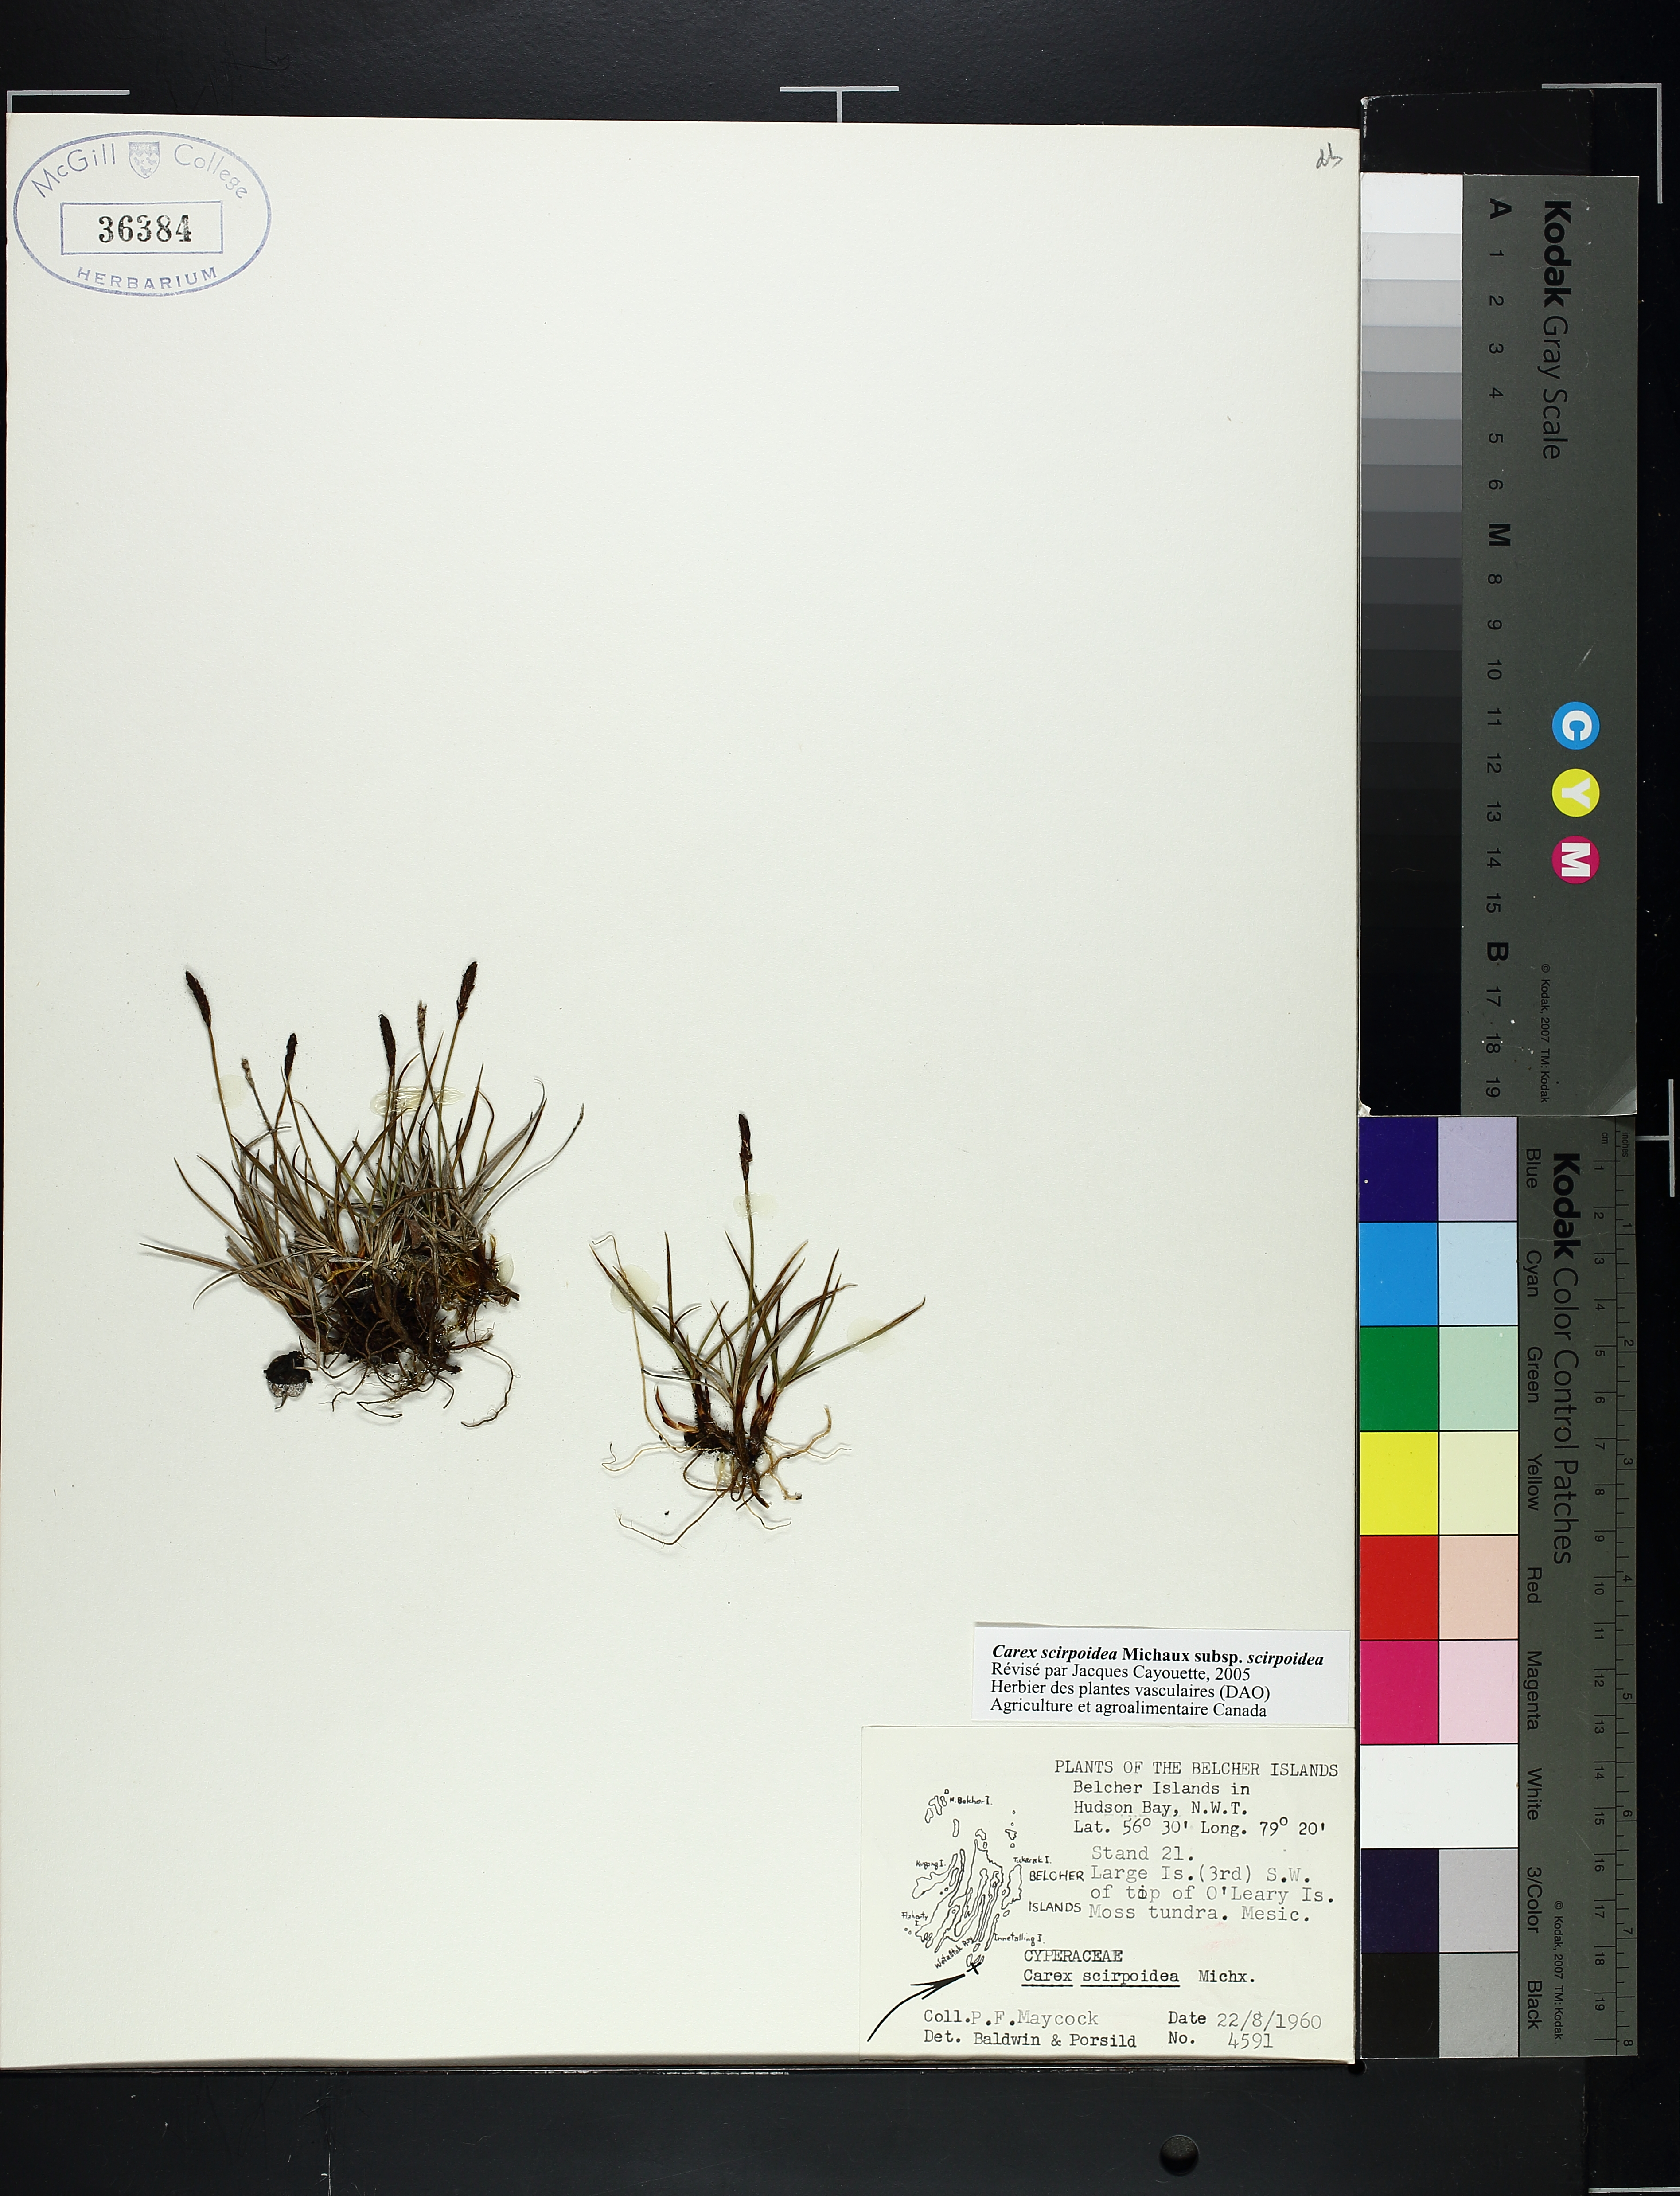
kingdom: Plantae
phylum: Tracheophyta
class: Liliopsida
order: Poales
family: Cyperaceae
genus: Carex
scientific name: Carex scirpoidea
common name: Canada single-spike sedge
